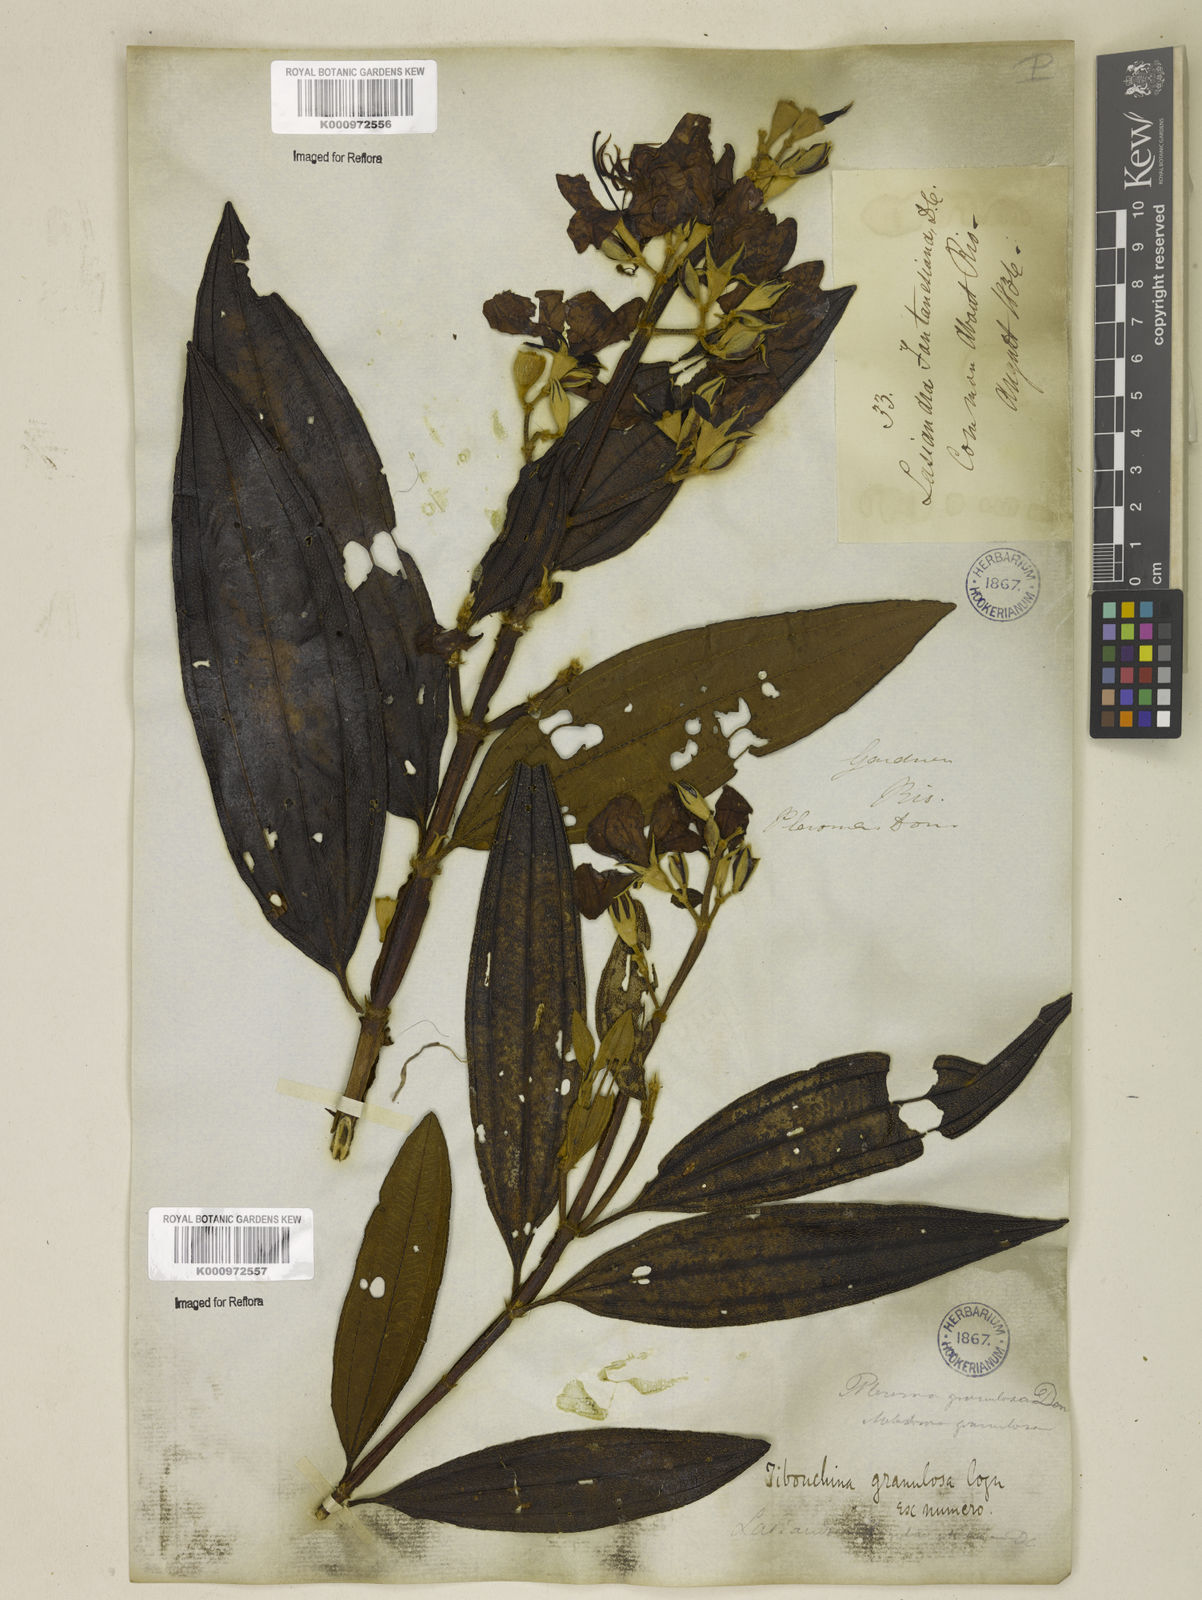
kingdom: Plantae
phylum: Tracheophyta
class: Magnoliopsida
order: Myrtales
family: Melastomataceae
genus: Pleroma
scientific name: Pleroma granulosum
